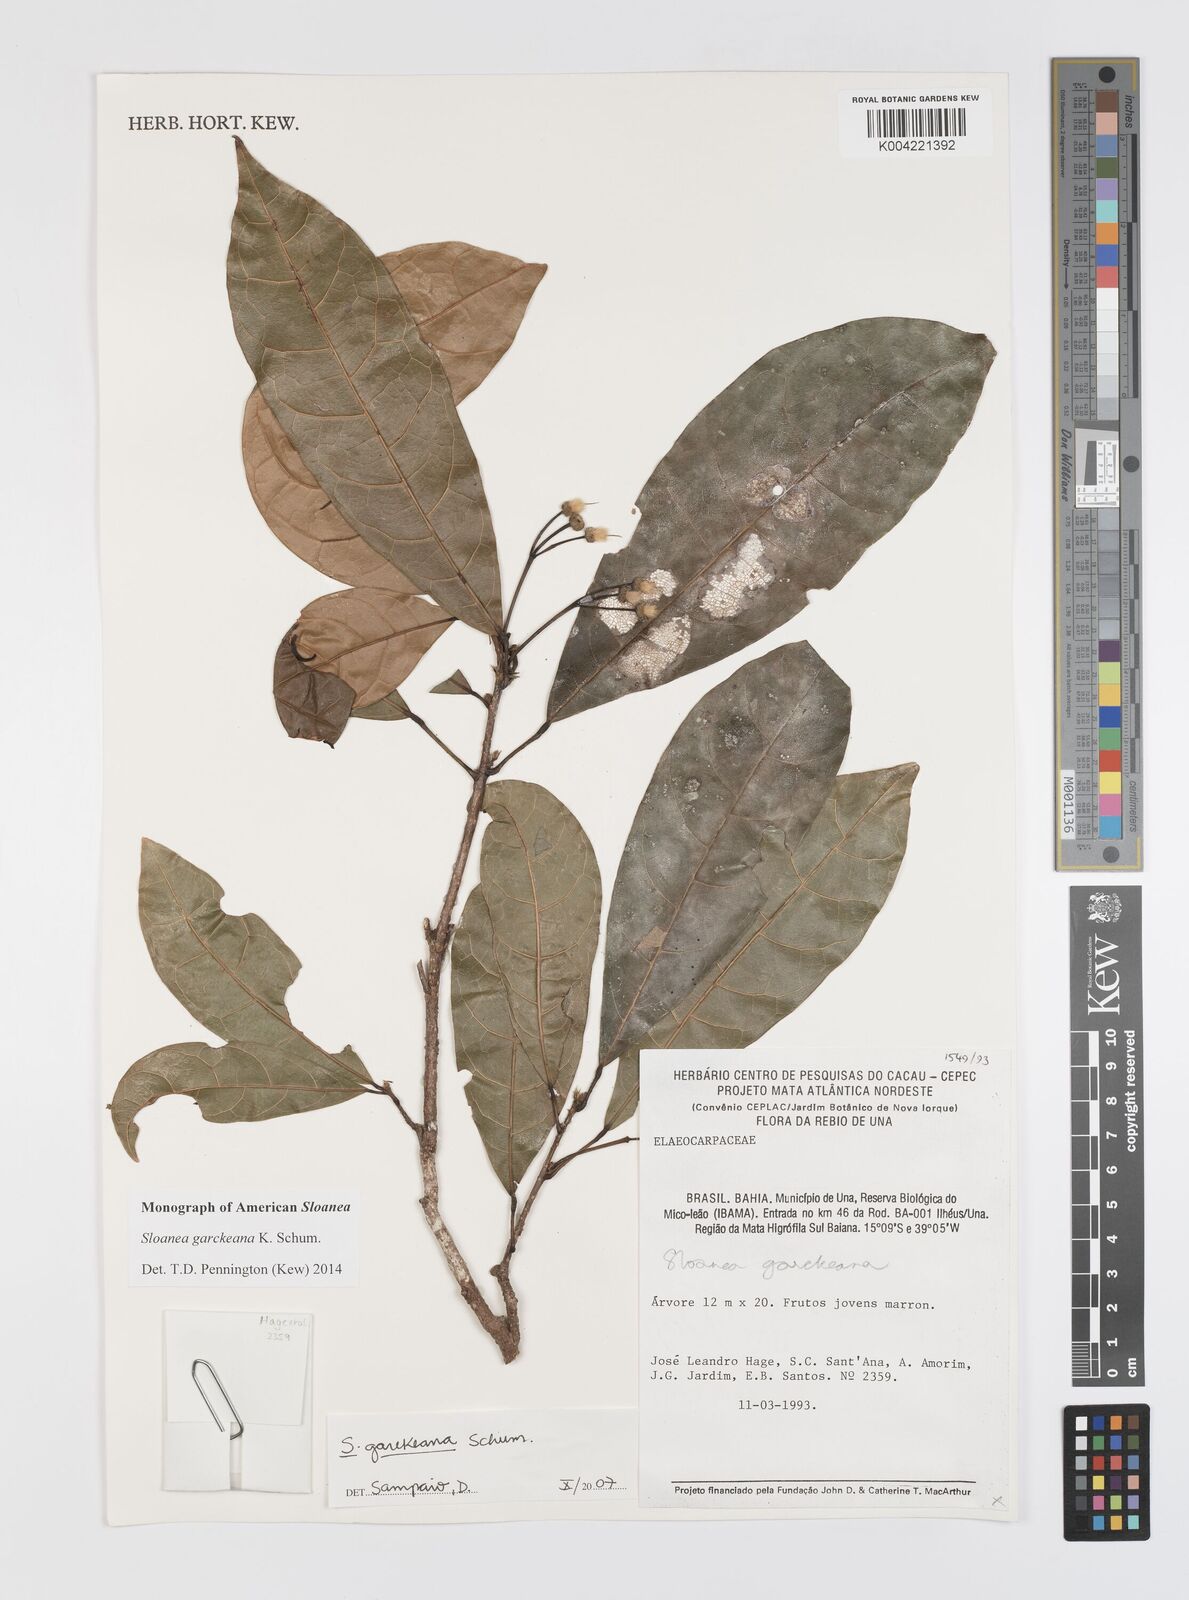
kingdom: Plantae
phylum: Tracheophyta
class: Magnoliopsida
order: Oxalidales
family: Elaeocarpaceae
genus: Sloanea
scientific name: Sloanea garckeana
